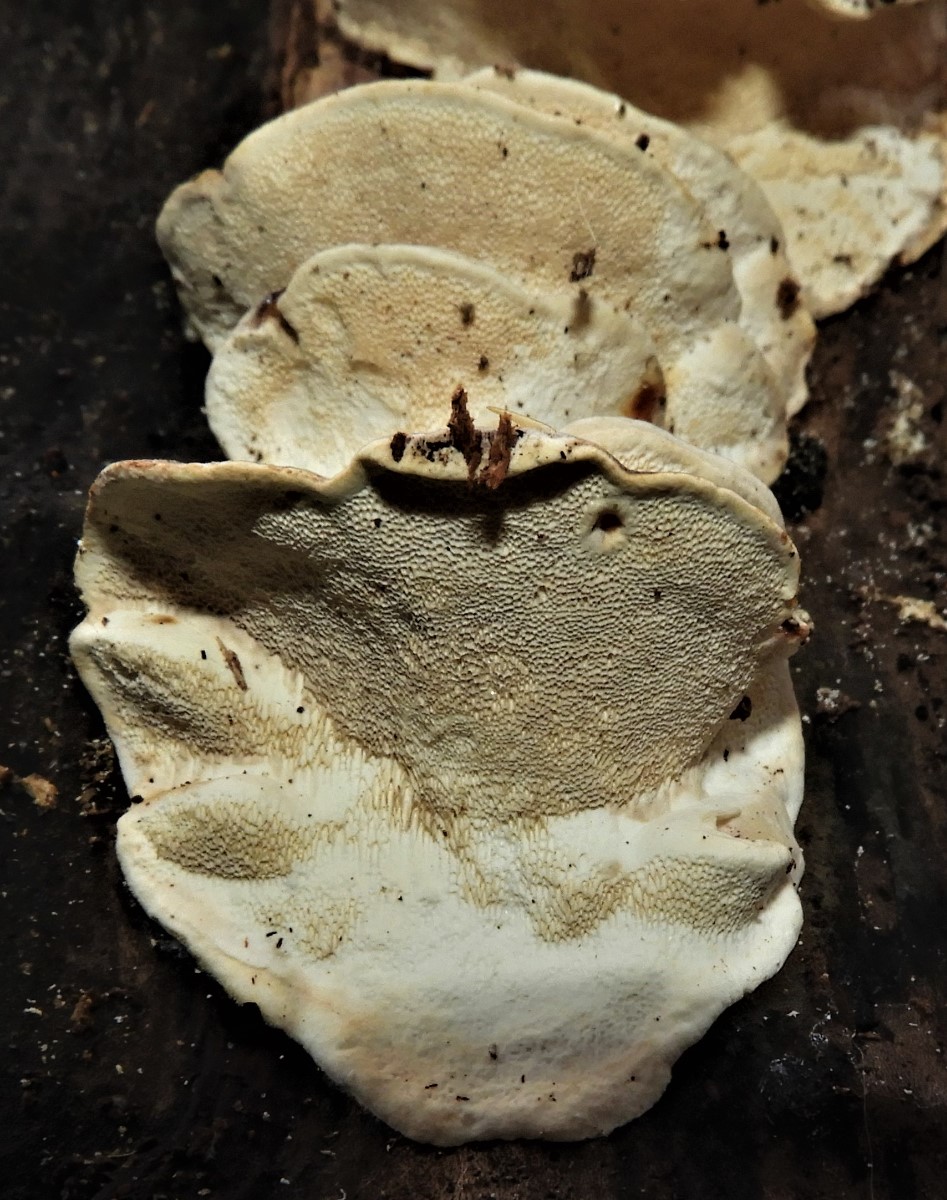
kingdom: Fungi
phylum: Basidiomycota
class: Agaricomycetes
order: Polyporales
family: Polyporaceae
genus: Trametes
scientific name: Trametes
